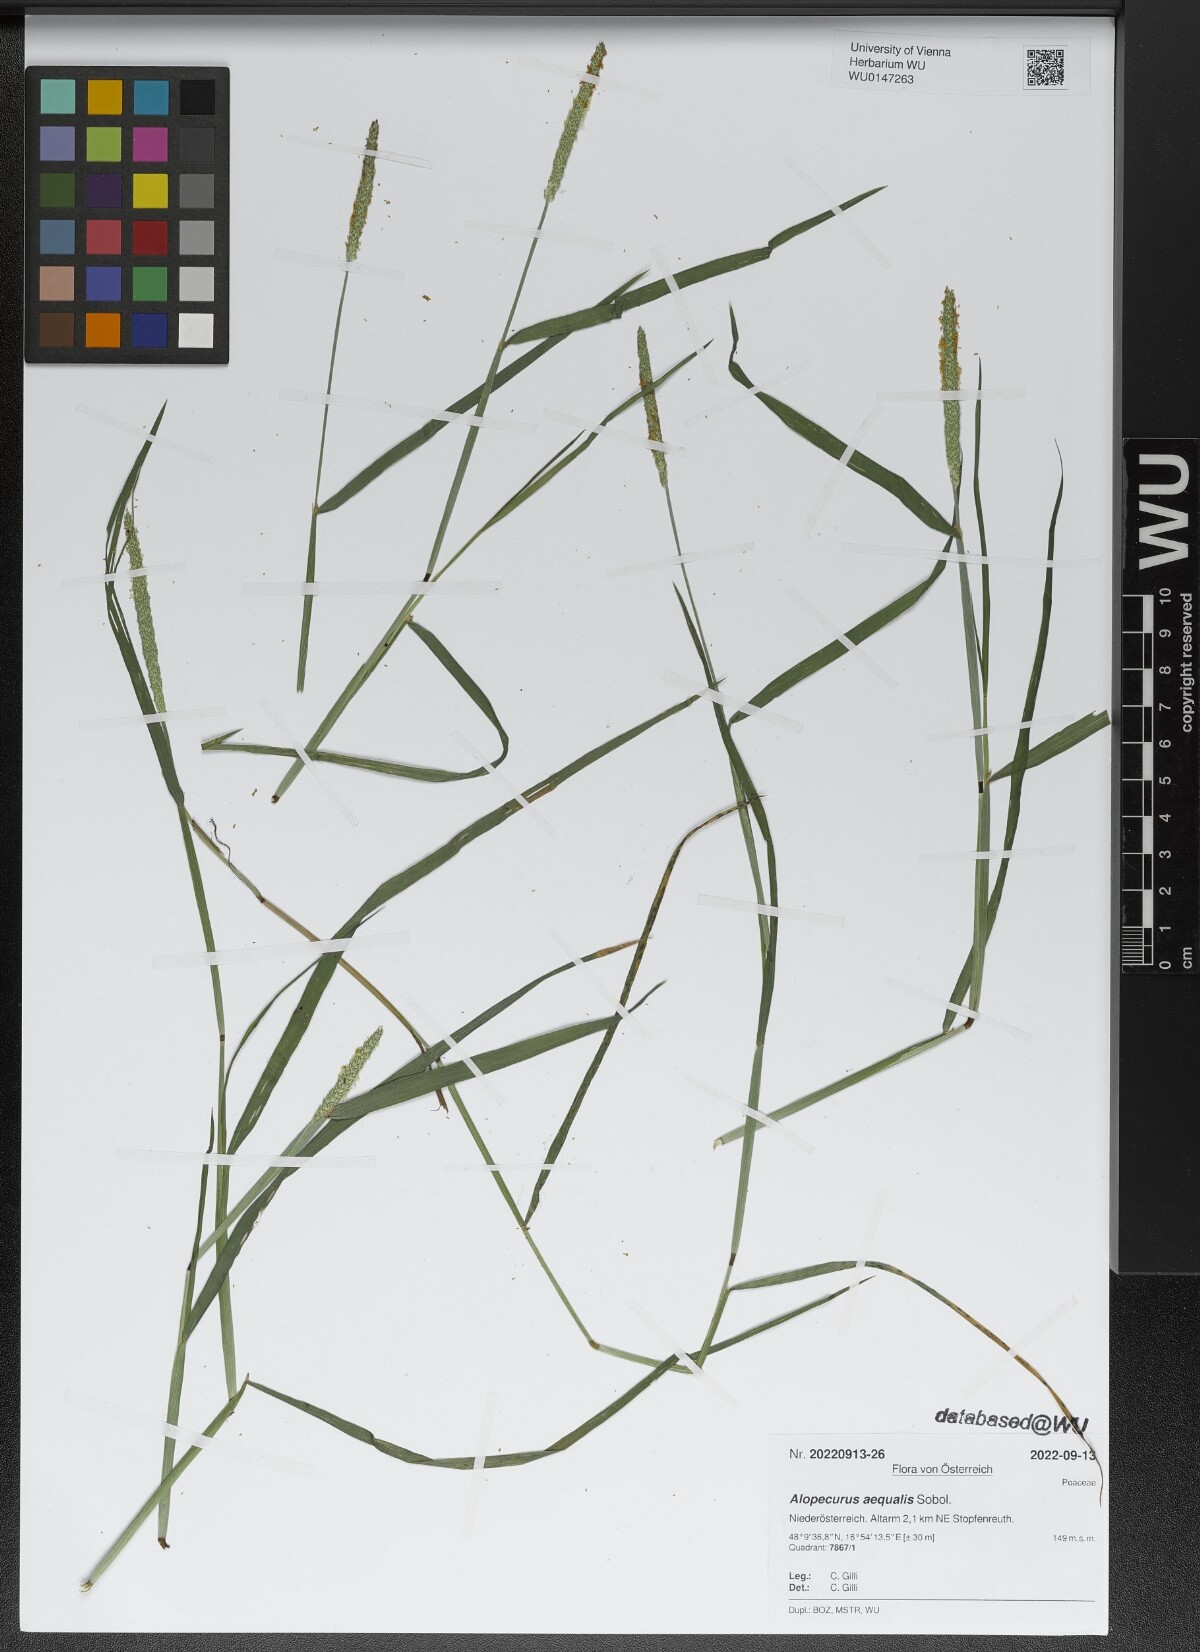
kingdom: Plantae
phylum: Tracheophyta
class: Liliopsida
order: Poales
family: Poaceae
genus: Alopecurus
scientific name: Alopecurus aequalis
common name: Orange foxtail
